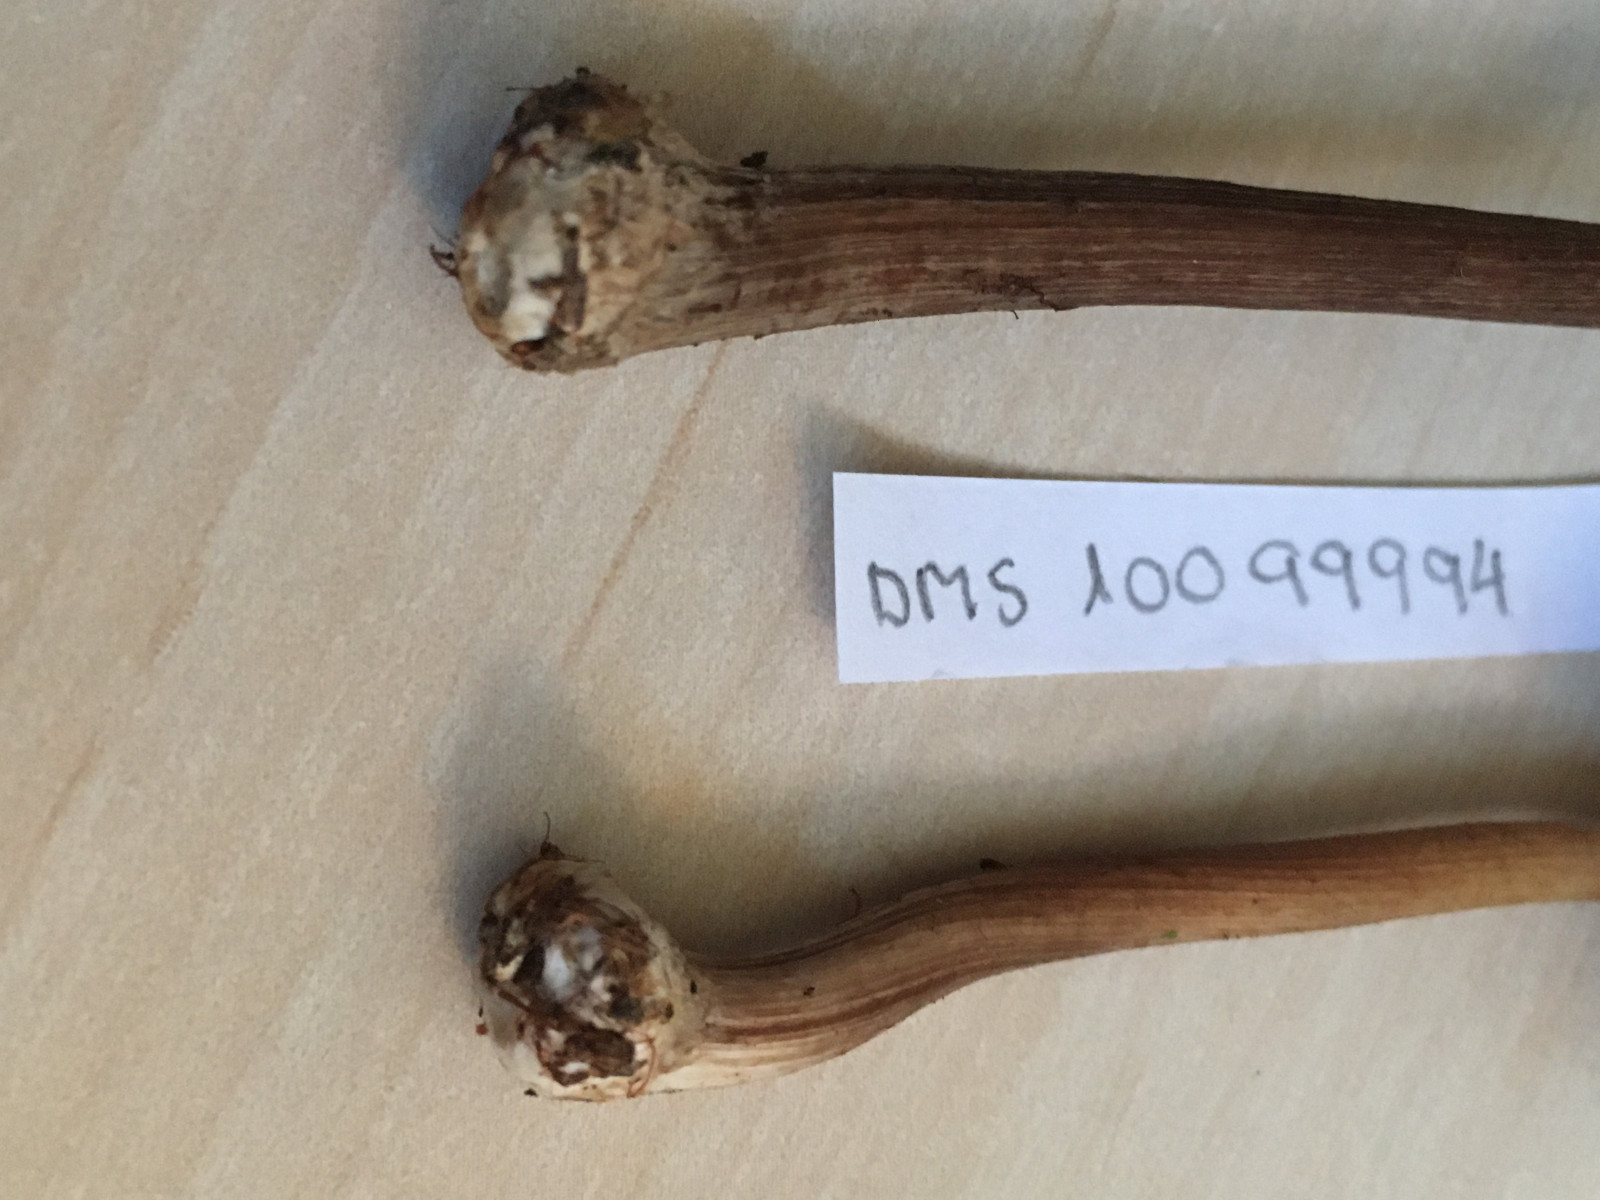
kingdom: Fungi
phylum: Basidiomycota
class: Agaricomycetes
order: Agaricales
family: Inocybaceae
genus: Inocybe
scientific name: Inocybe napipes
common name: roeknoldet trævlhat
